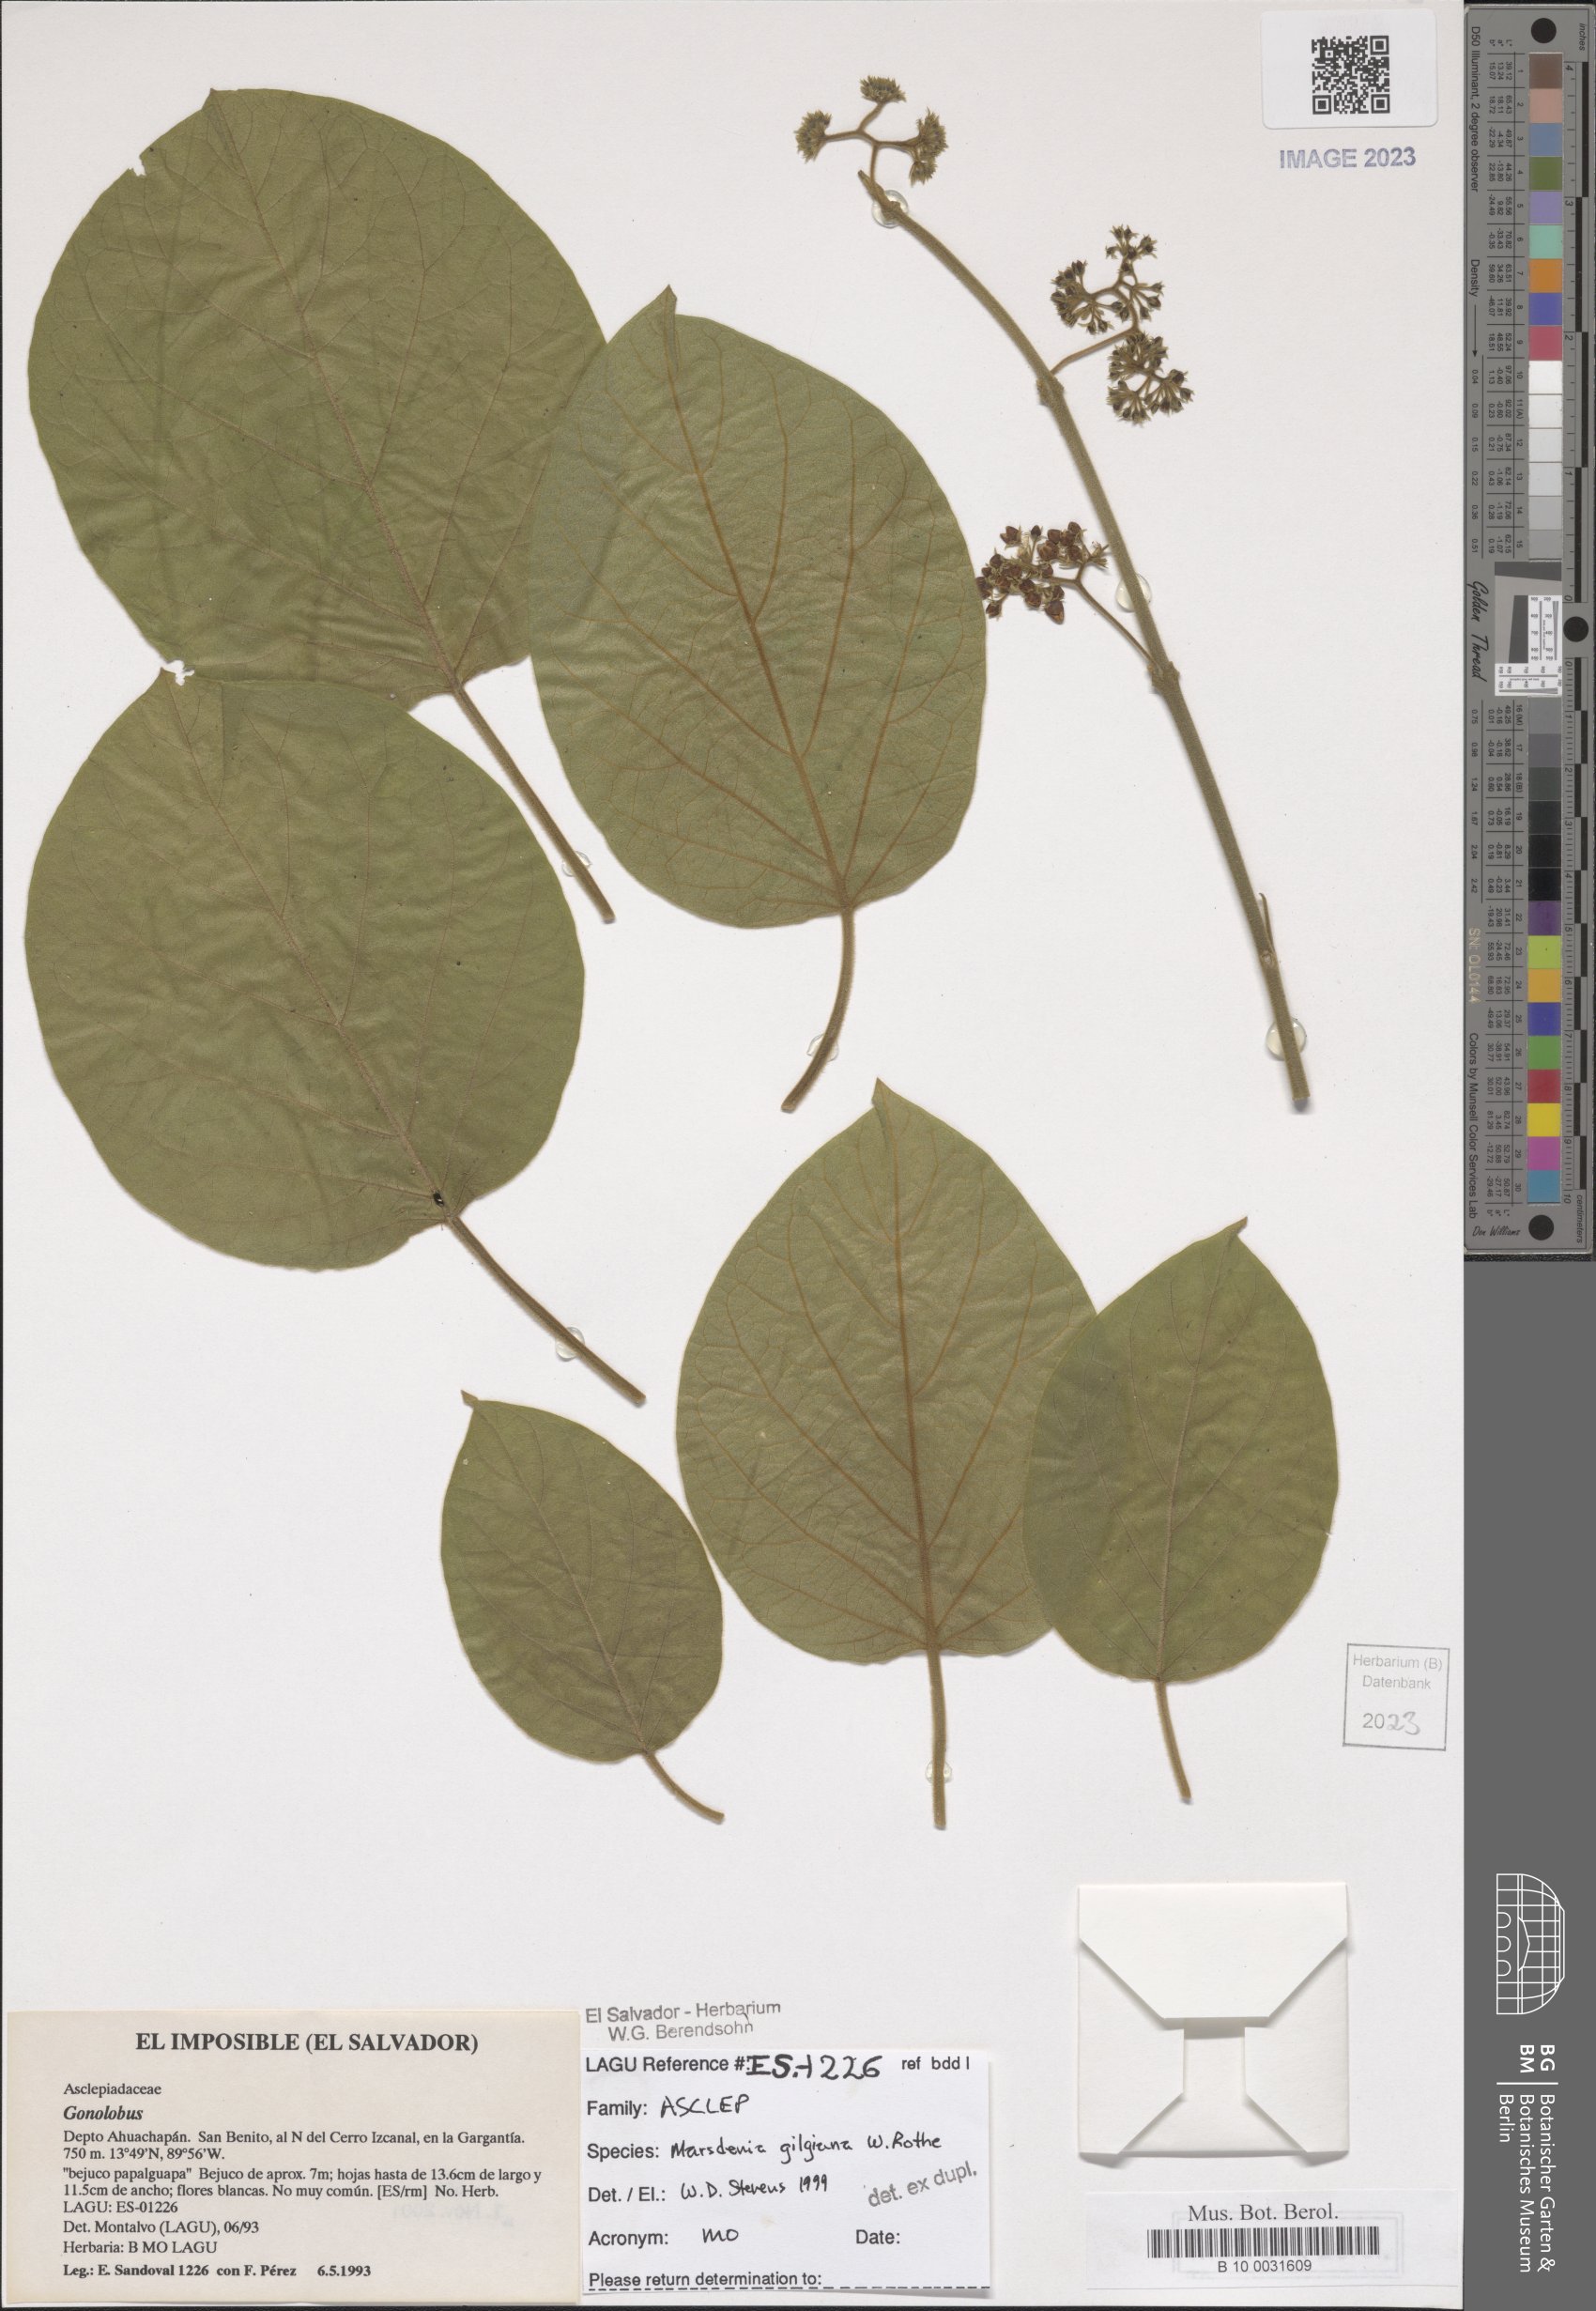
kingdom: Plantae
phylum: Tracheophyta
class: Magnoliopsida
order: Gentianales
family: Apocynaceae
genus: Ruehssia
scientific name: Ruehssia gilgiana
